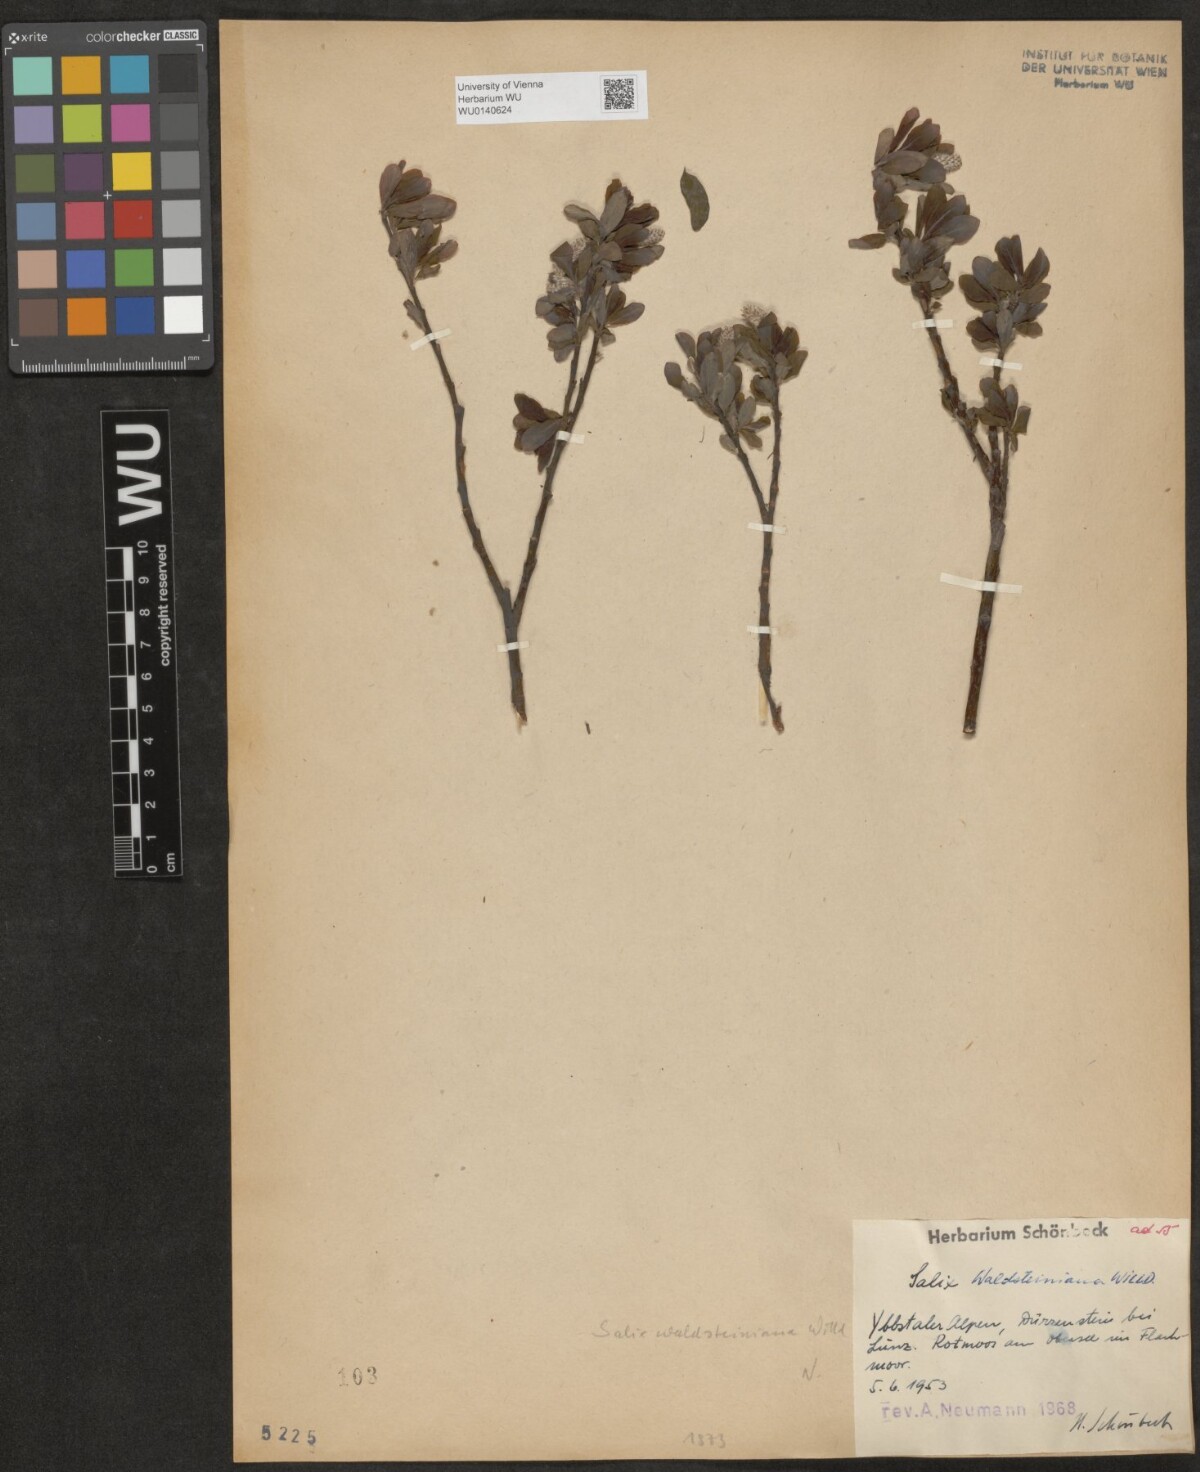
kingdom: Plantae
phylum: Tracheophyta
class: Magnoliopsida
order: Malpighiales
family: Salicaceae
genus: Salix
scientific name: Salix waldsteiniana
